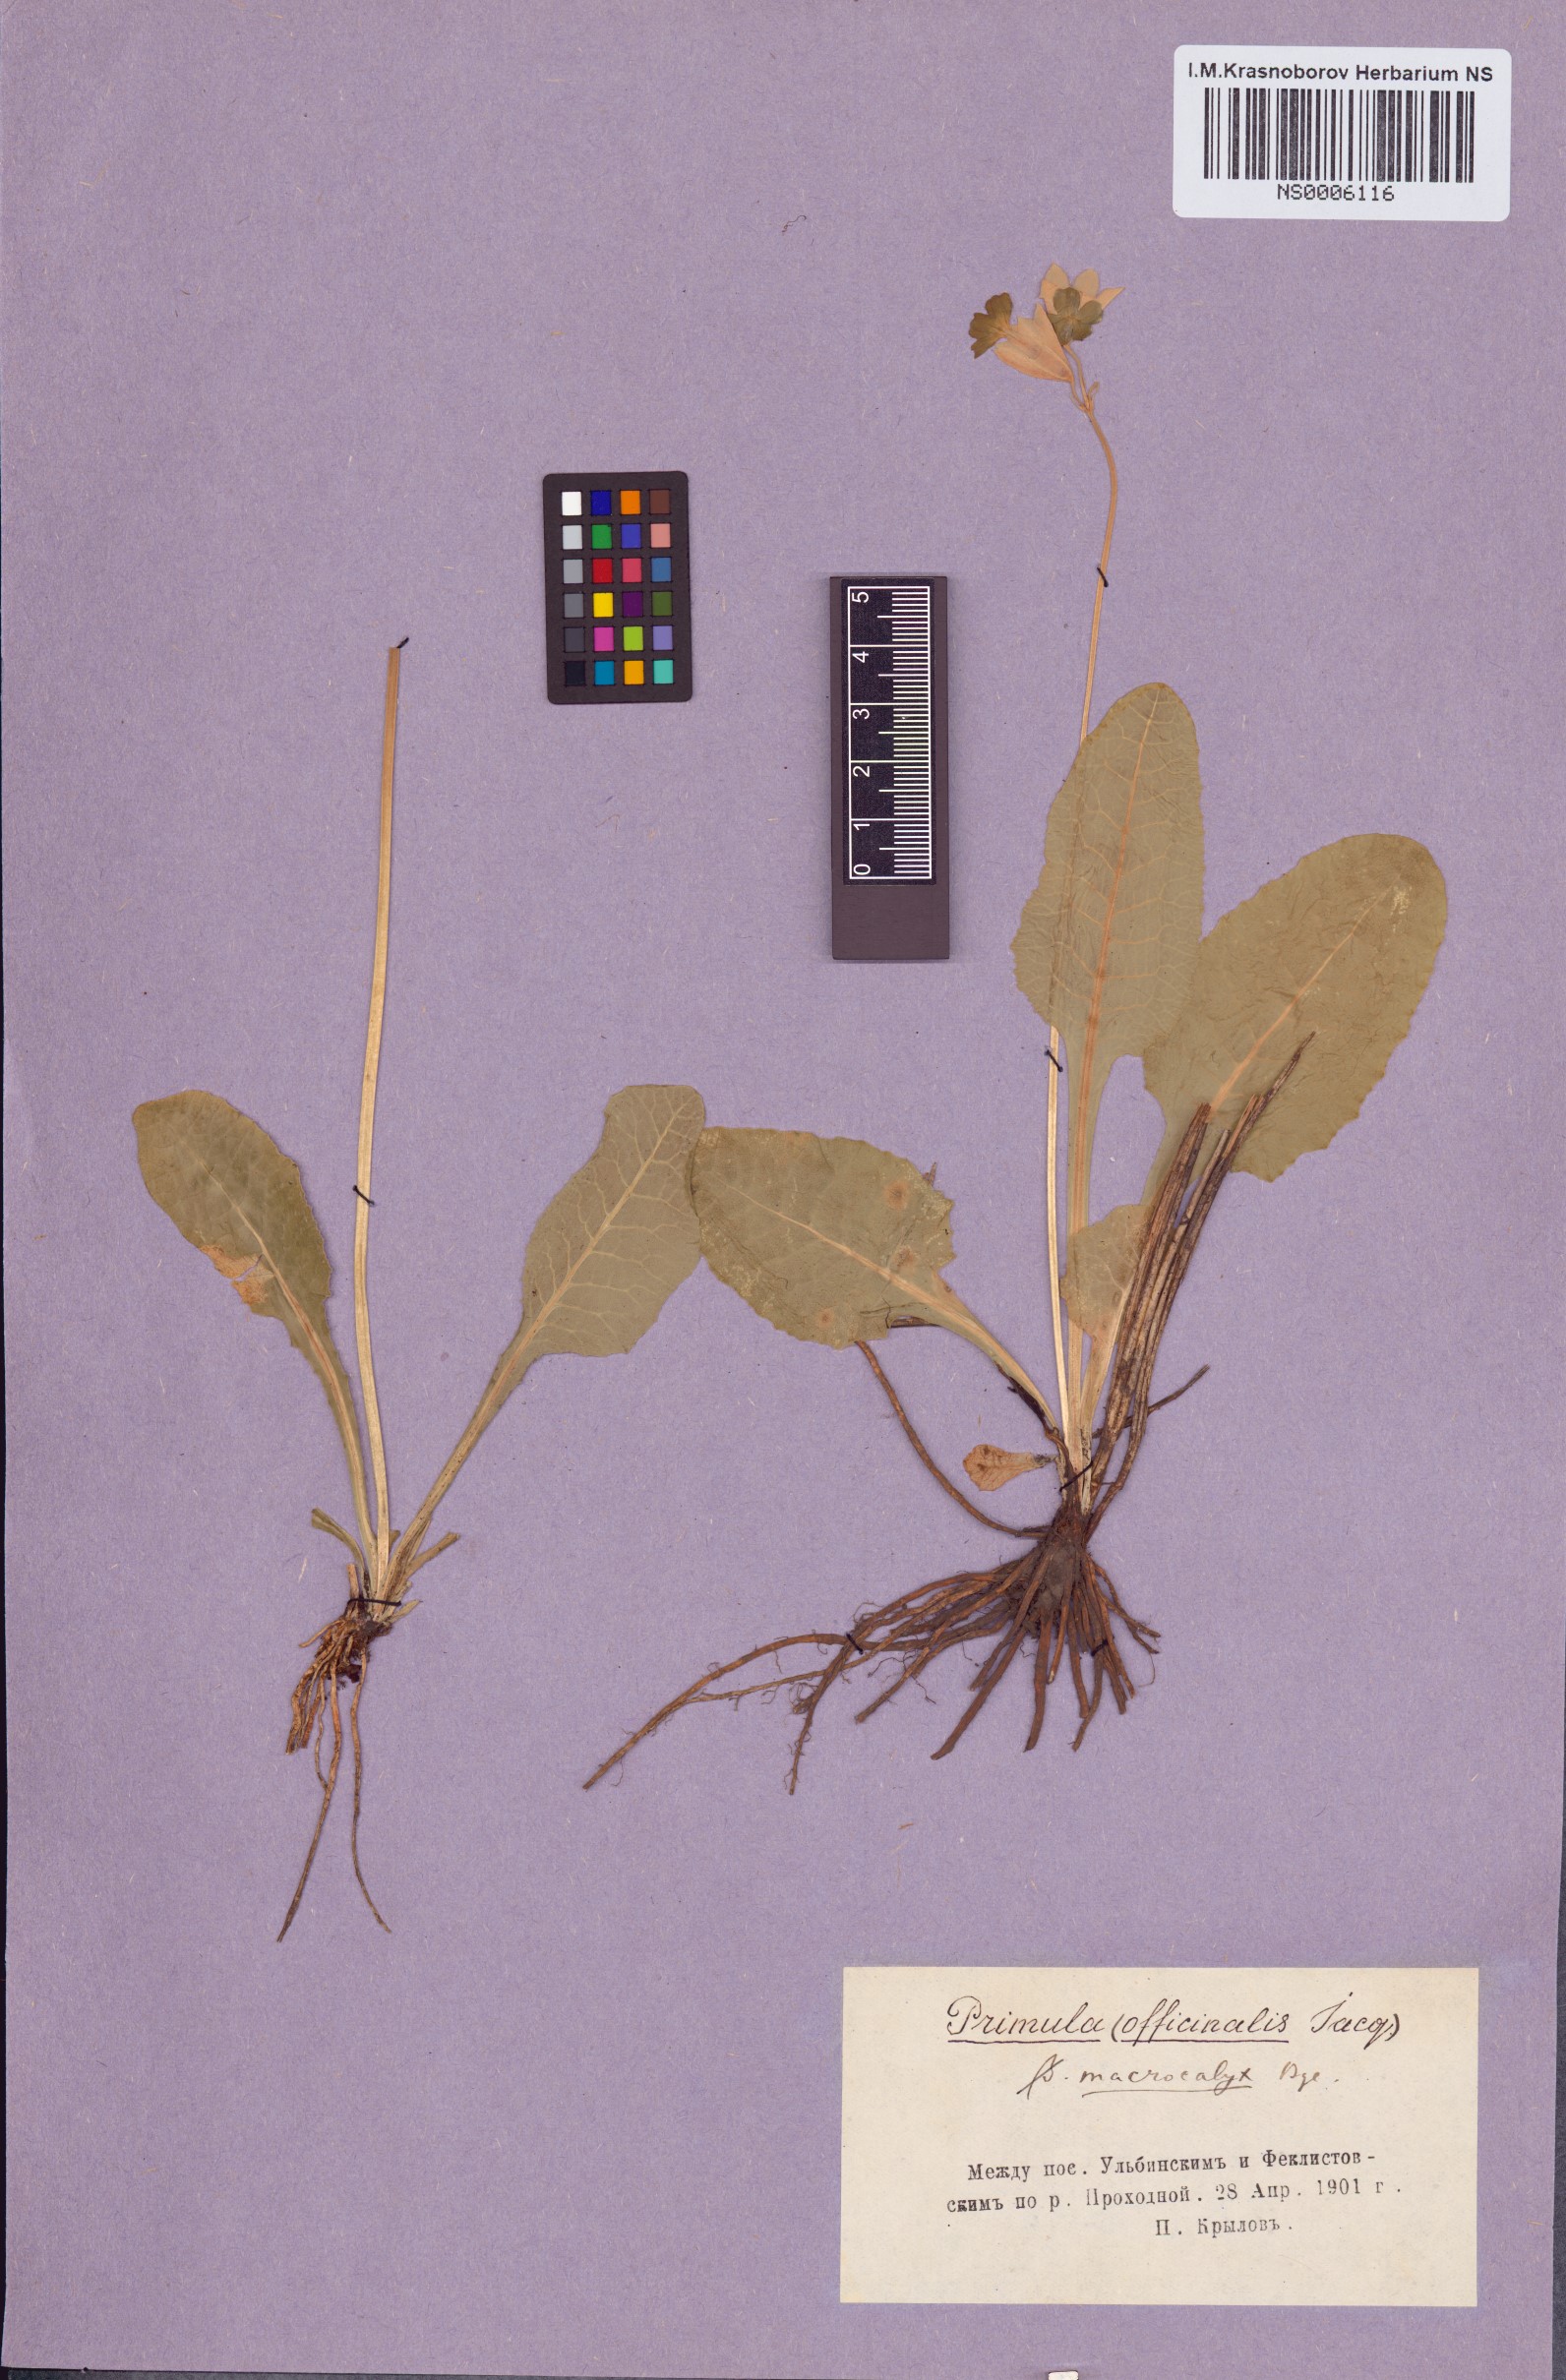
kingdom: Plantae
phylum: Tracheophyta
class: Magnoliopsida
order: Ericales
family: Primulaceae
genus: Primula
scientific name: Primula veris
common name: Cowslip
